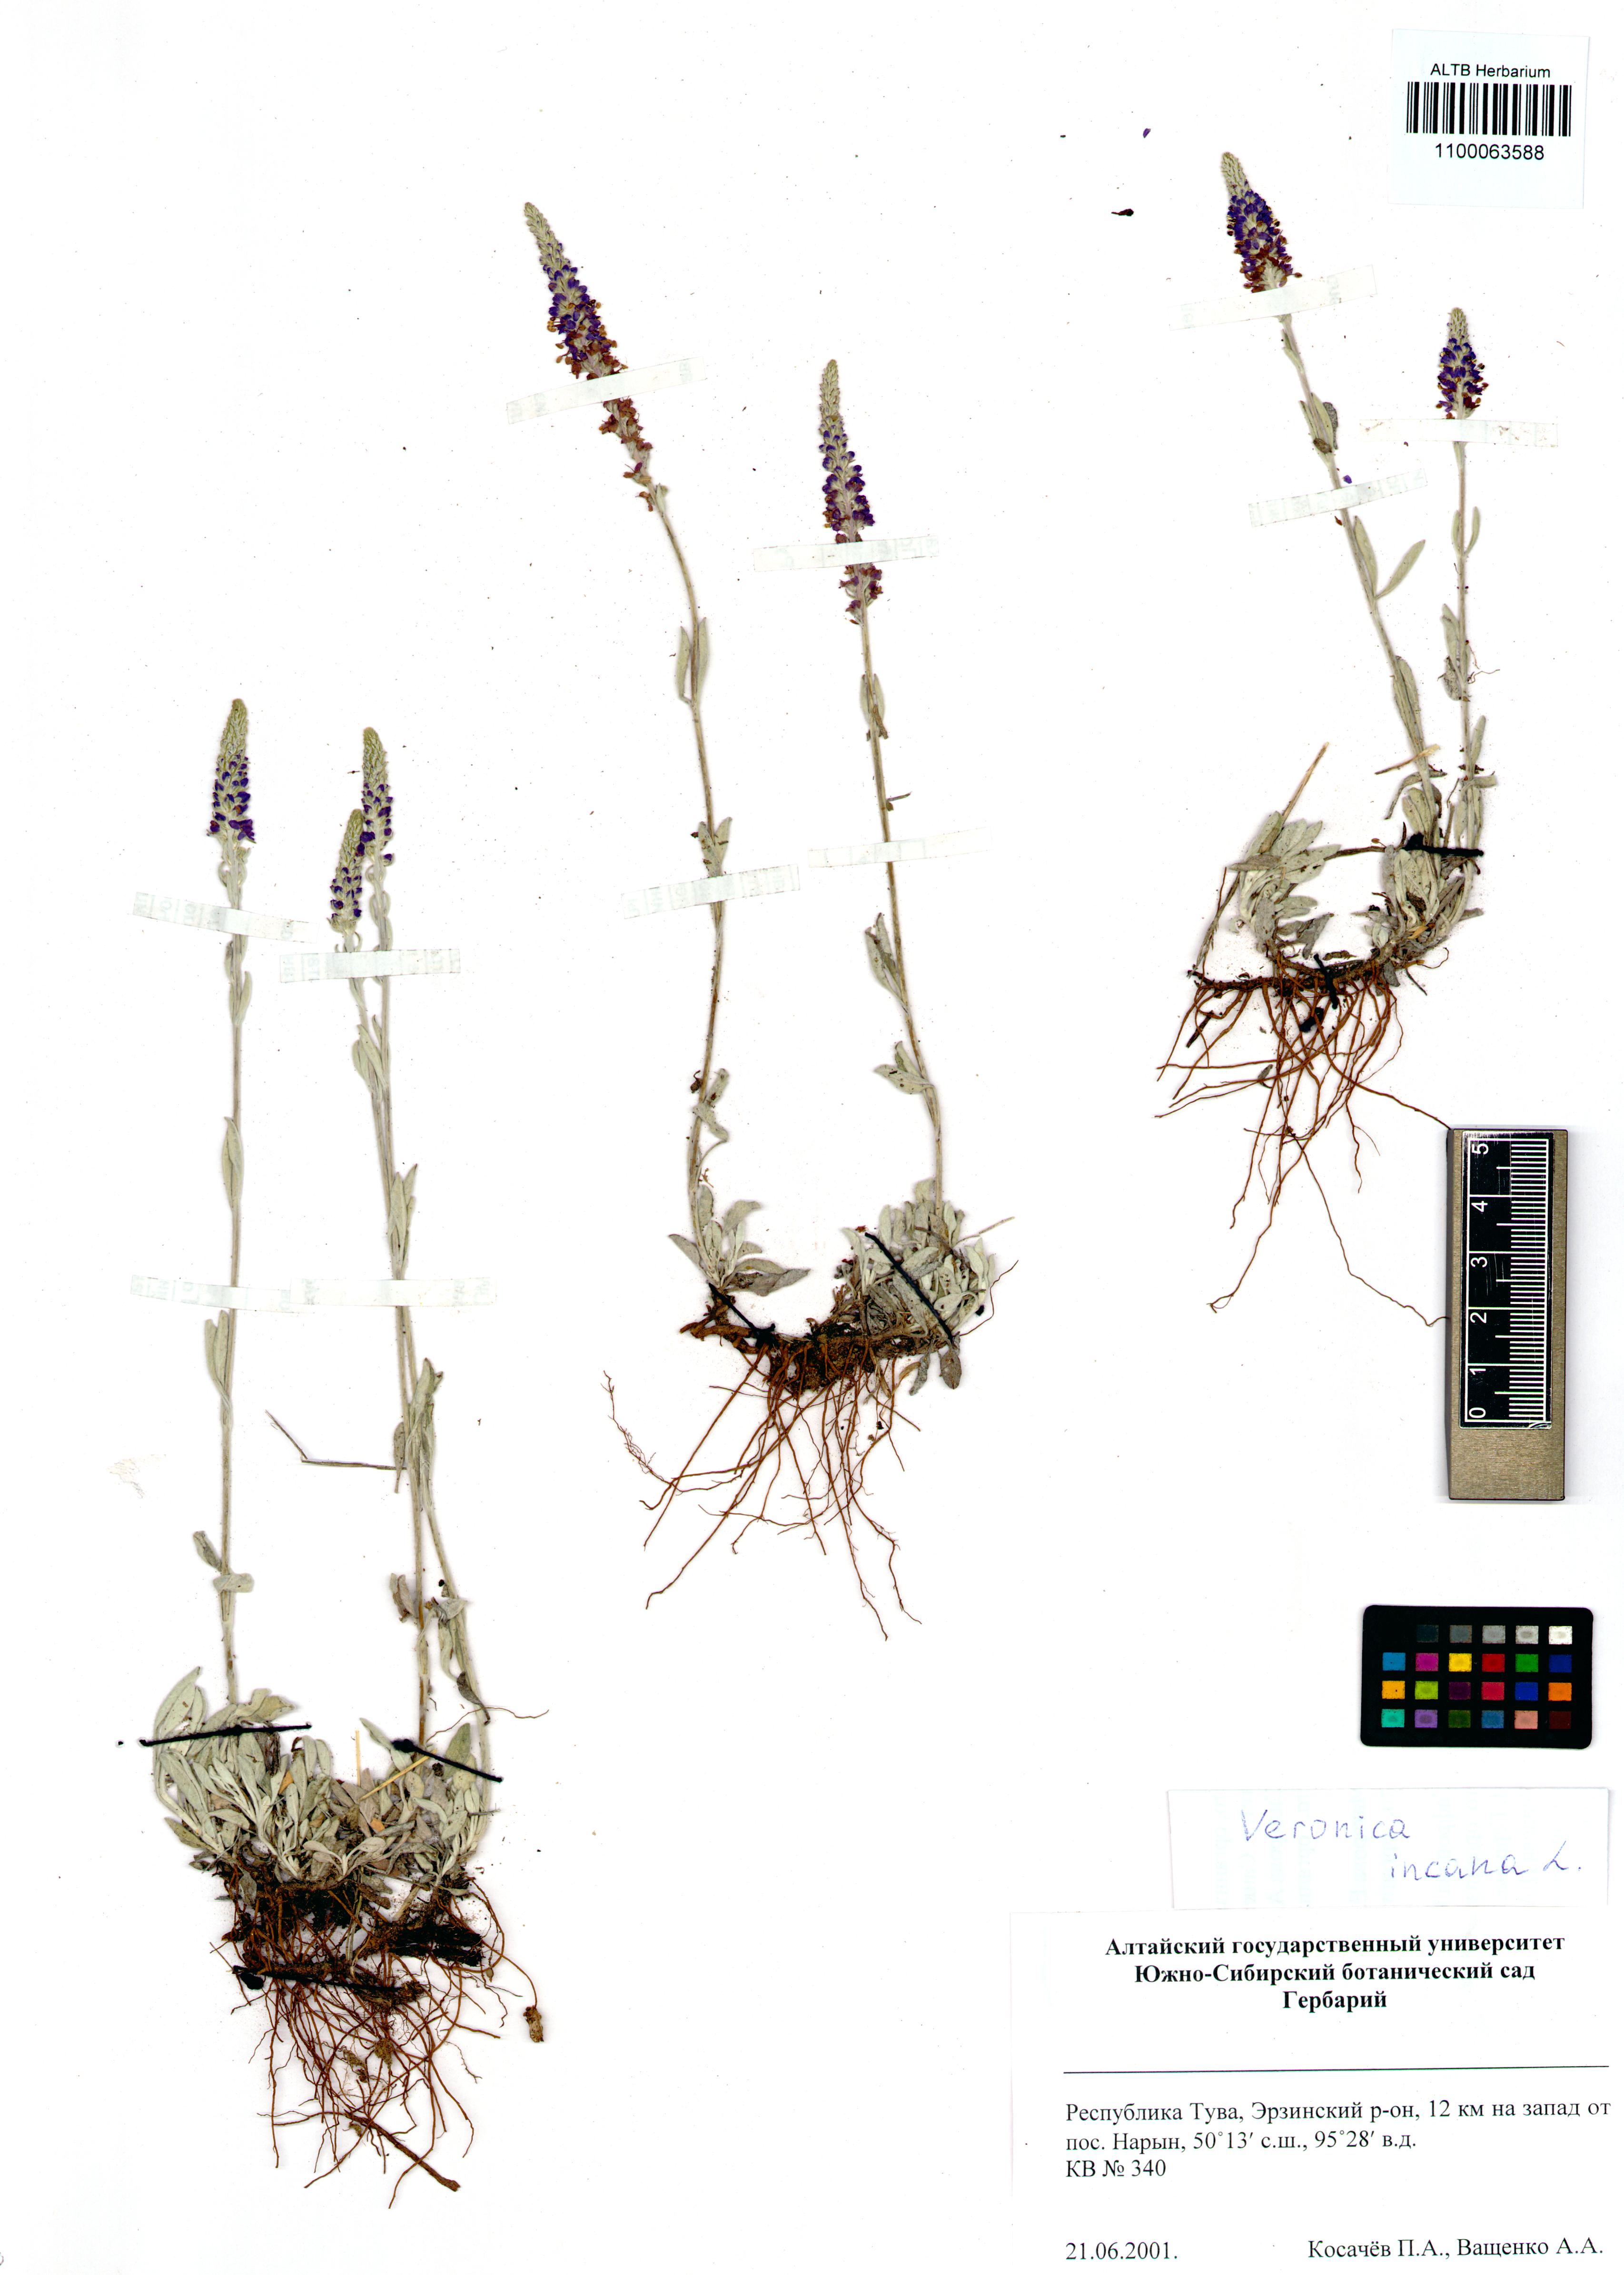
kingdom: Plantae
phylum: Tracheophyta
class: Magnoliopsida
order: Lamiales
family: Plantaginaceae
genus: Veronica
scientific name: Veronica incana
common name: Silver speedwell
